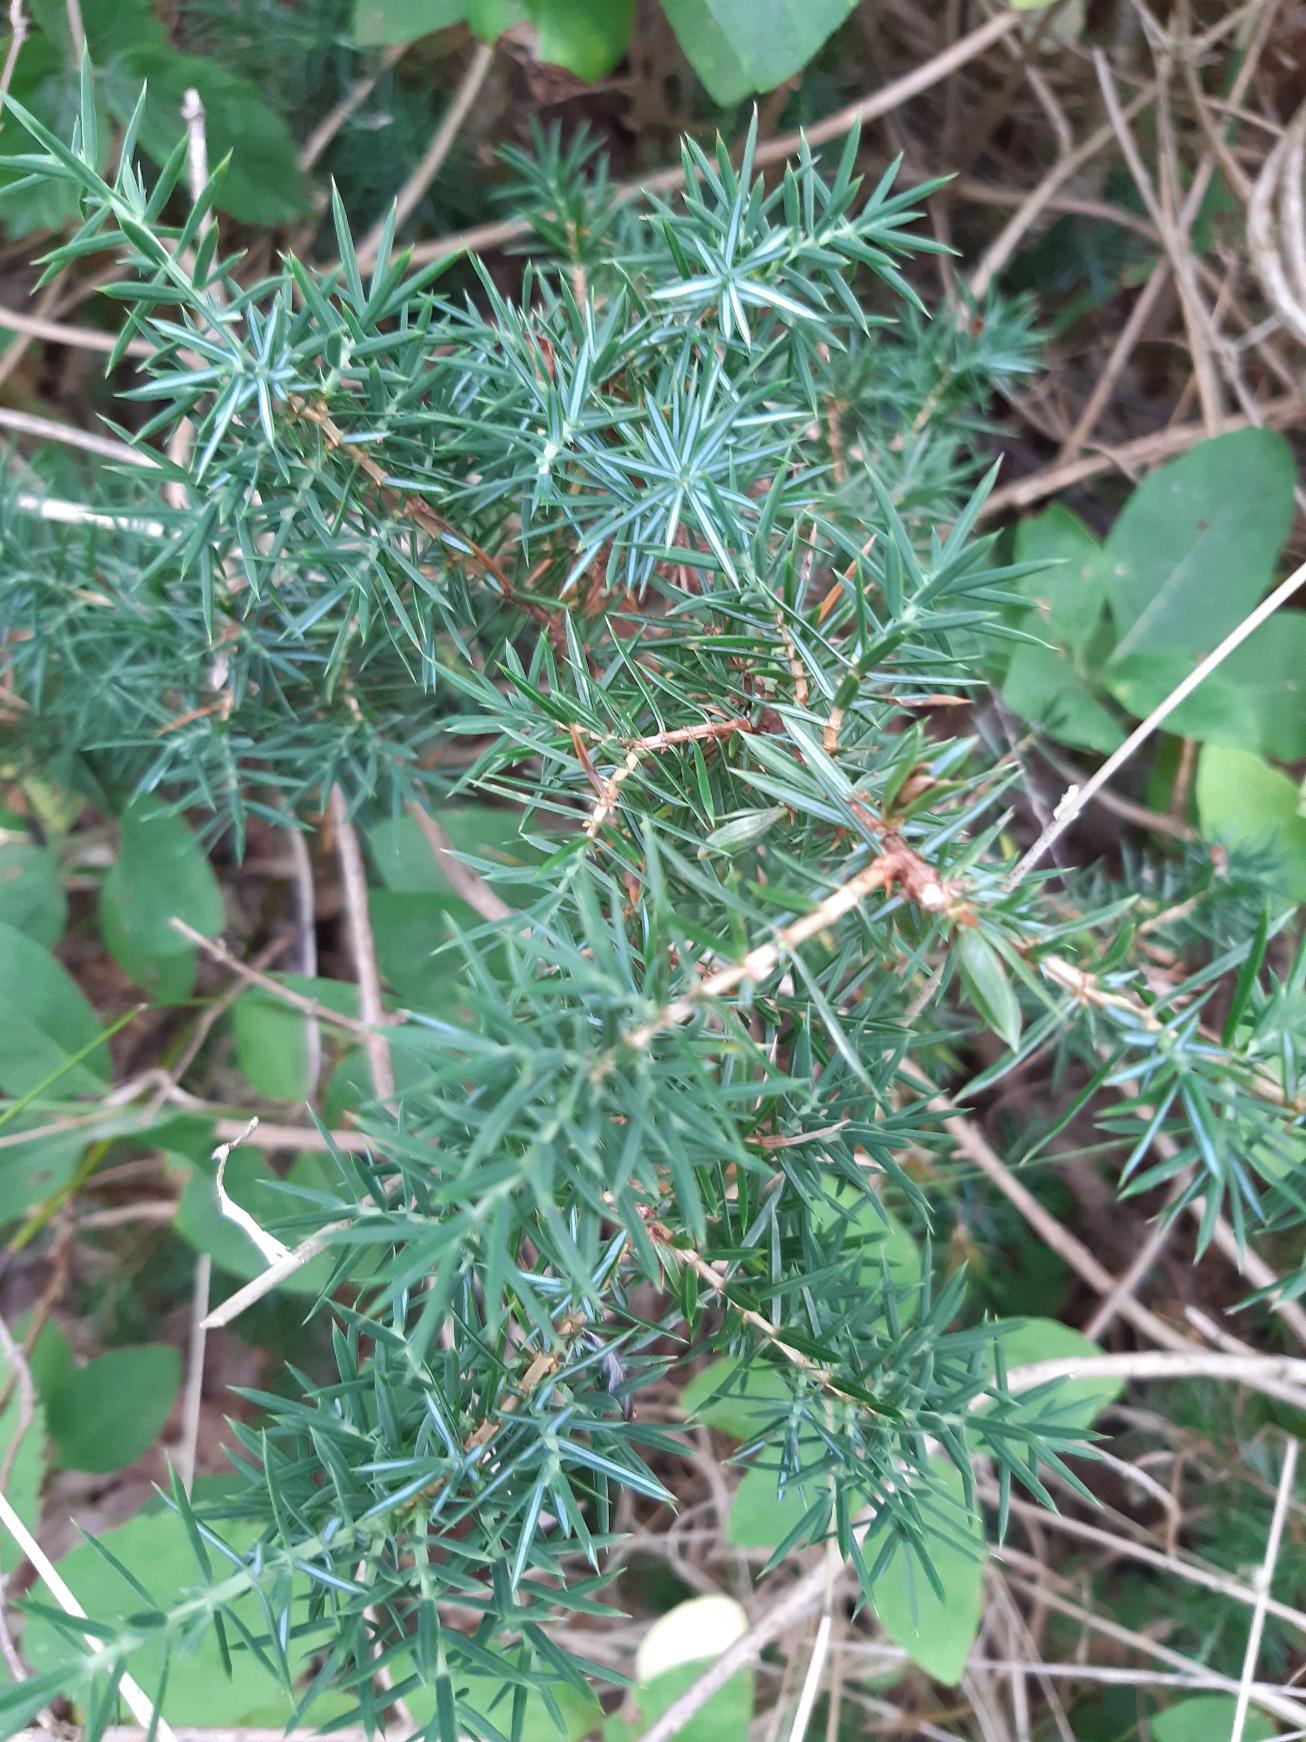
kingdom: Plantae
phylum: Tracheophyta
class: Pinopsida
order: Pinales
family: Cupressaceae
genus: Juniperus
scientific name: Juniperus communis
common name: Almindelig ene
